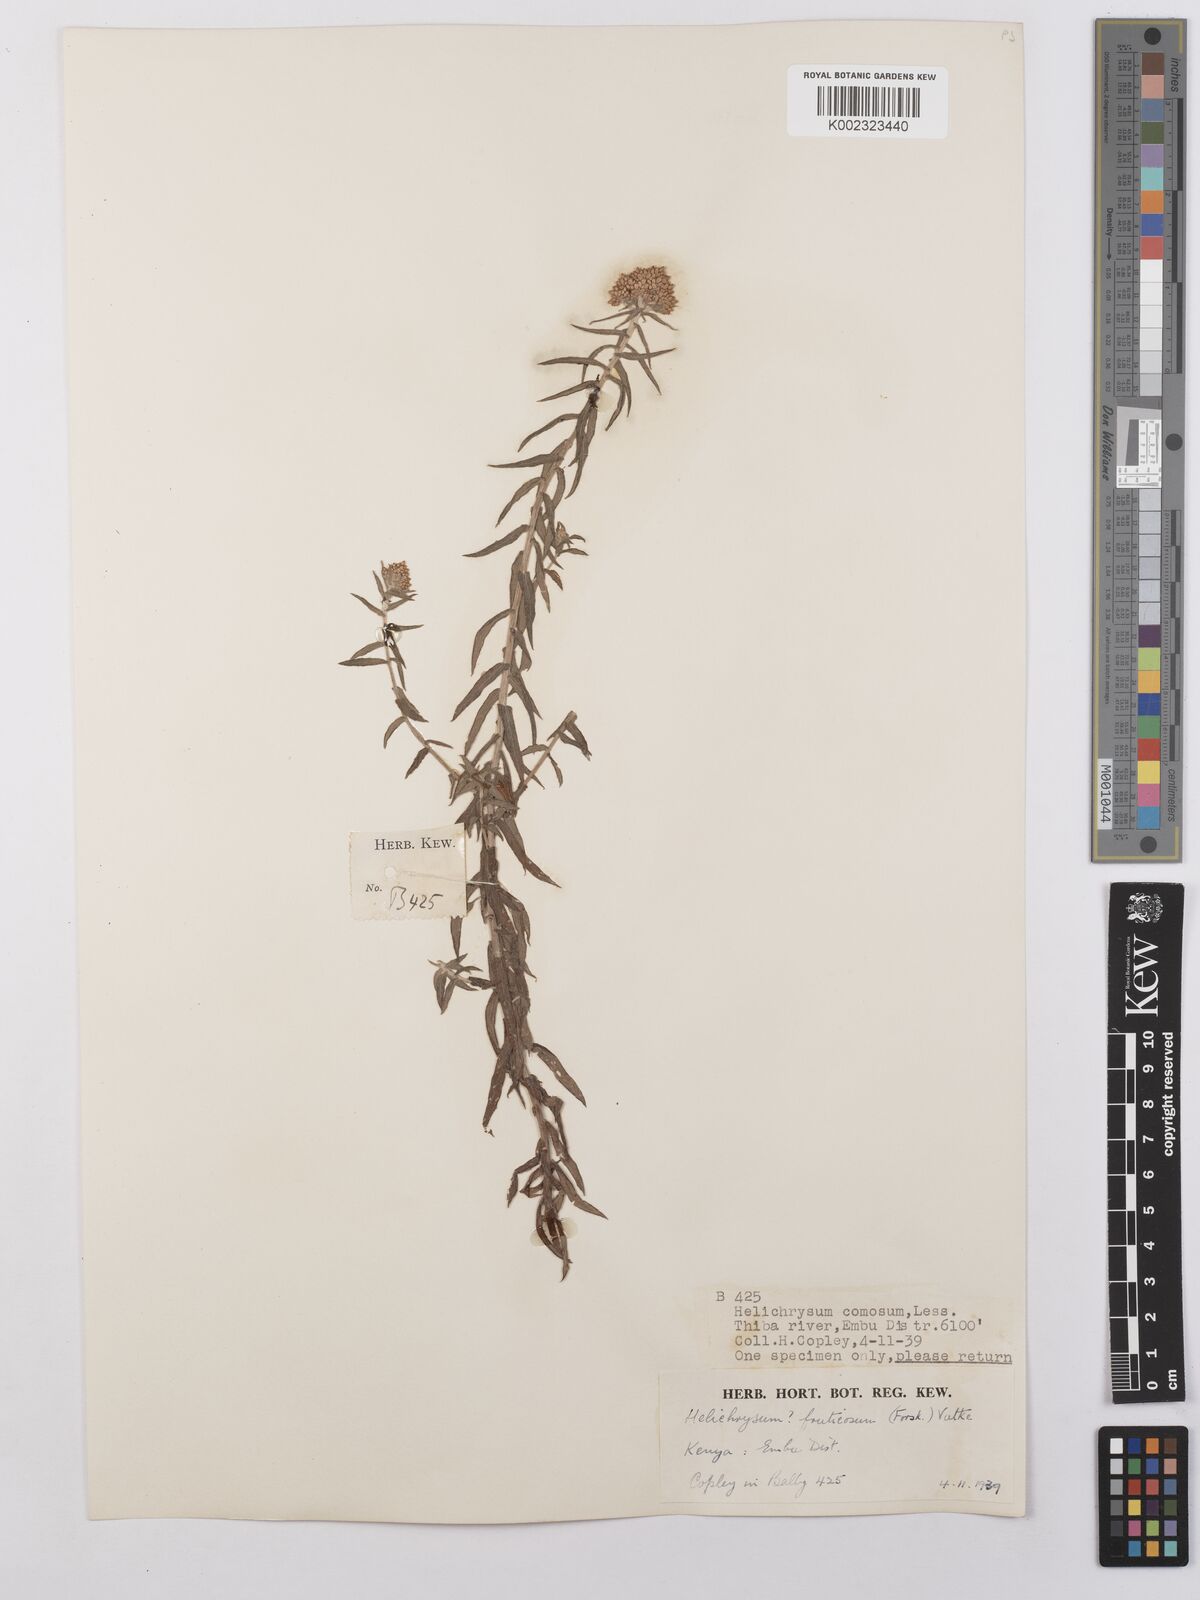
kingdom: Plantae
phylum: Tracheophyta
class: Magnoliopsida
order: Asterales
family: Asteraceae
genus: Helichrysum
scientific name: Helichrysum forskahlii
